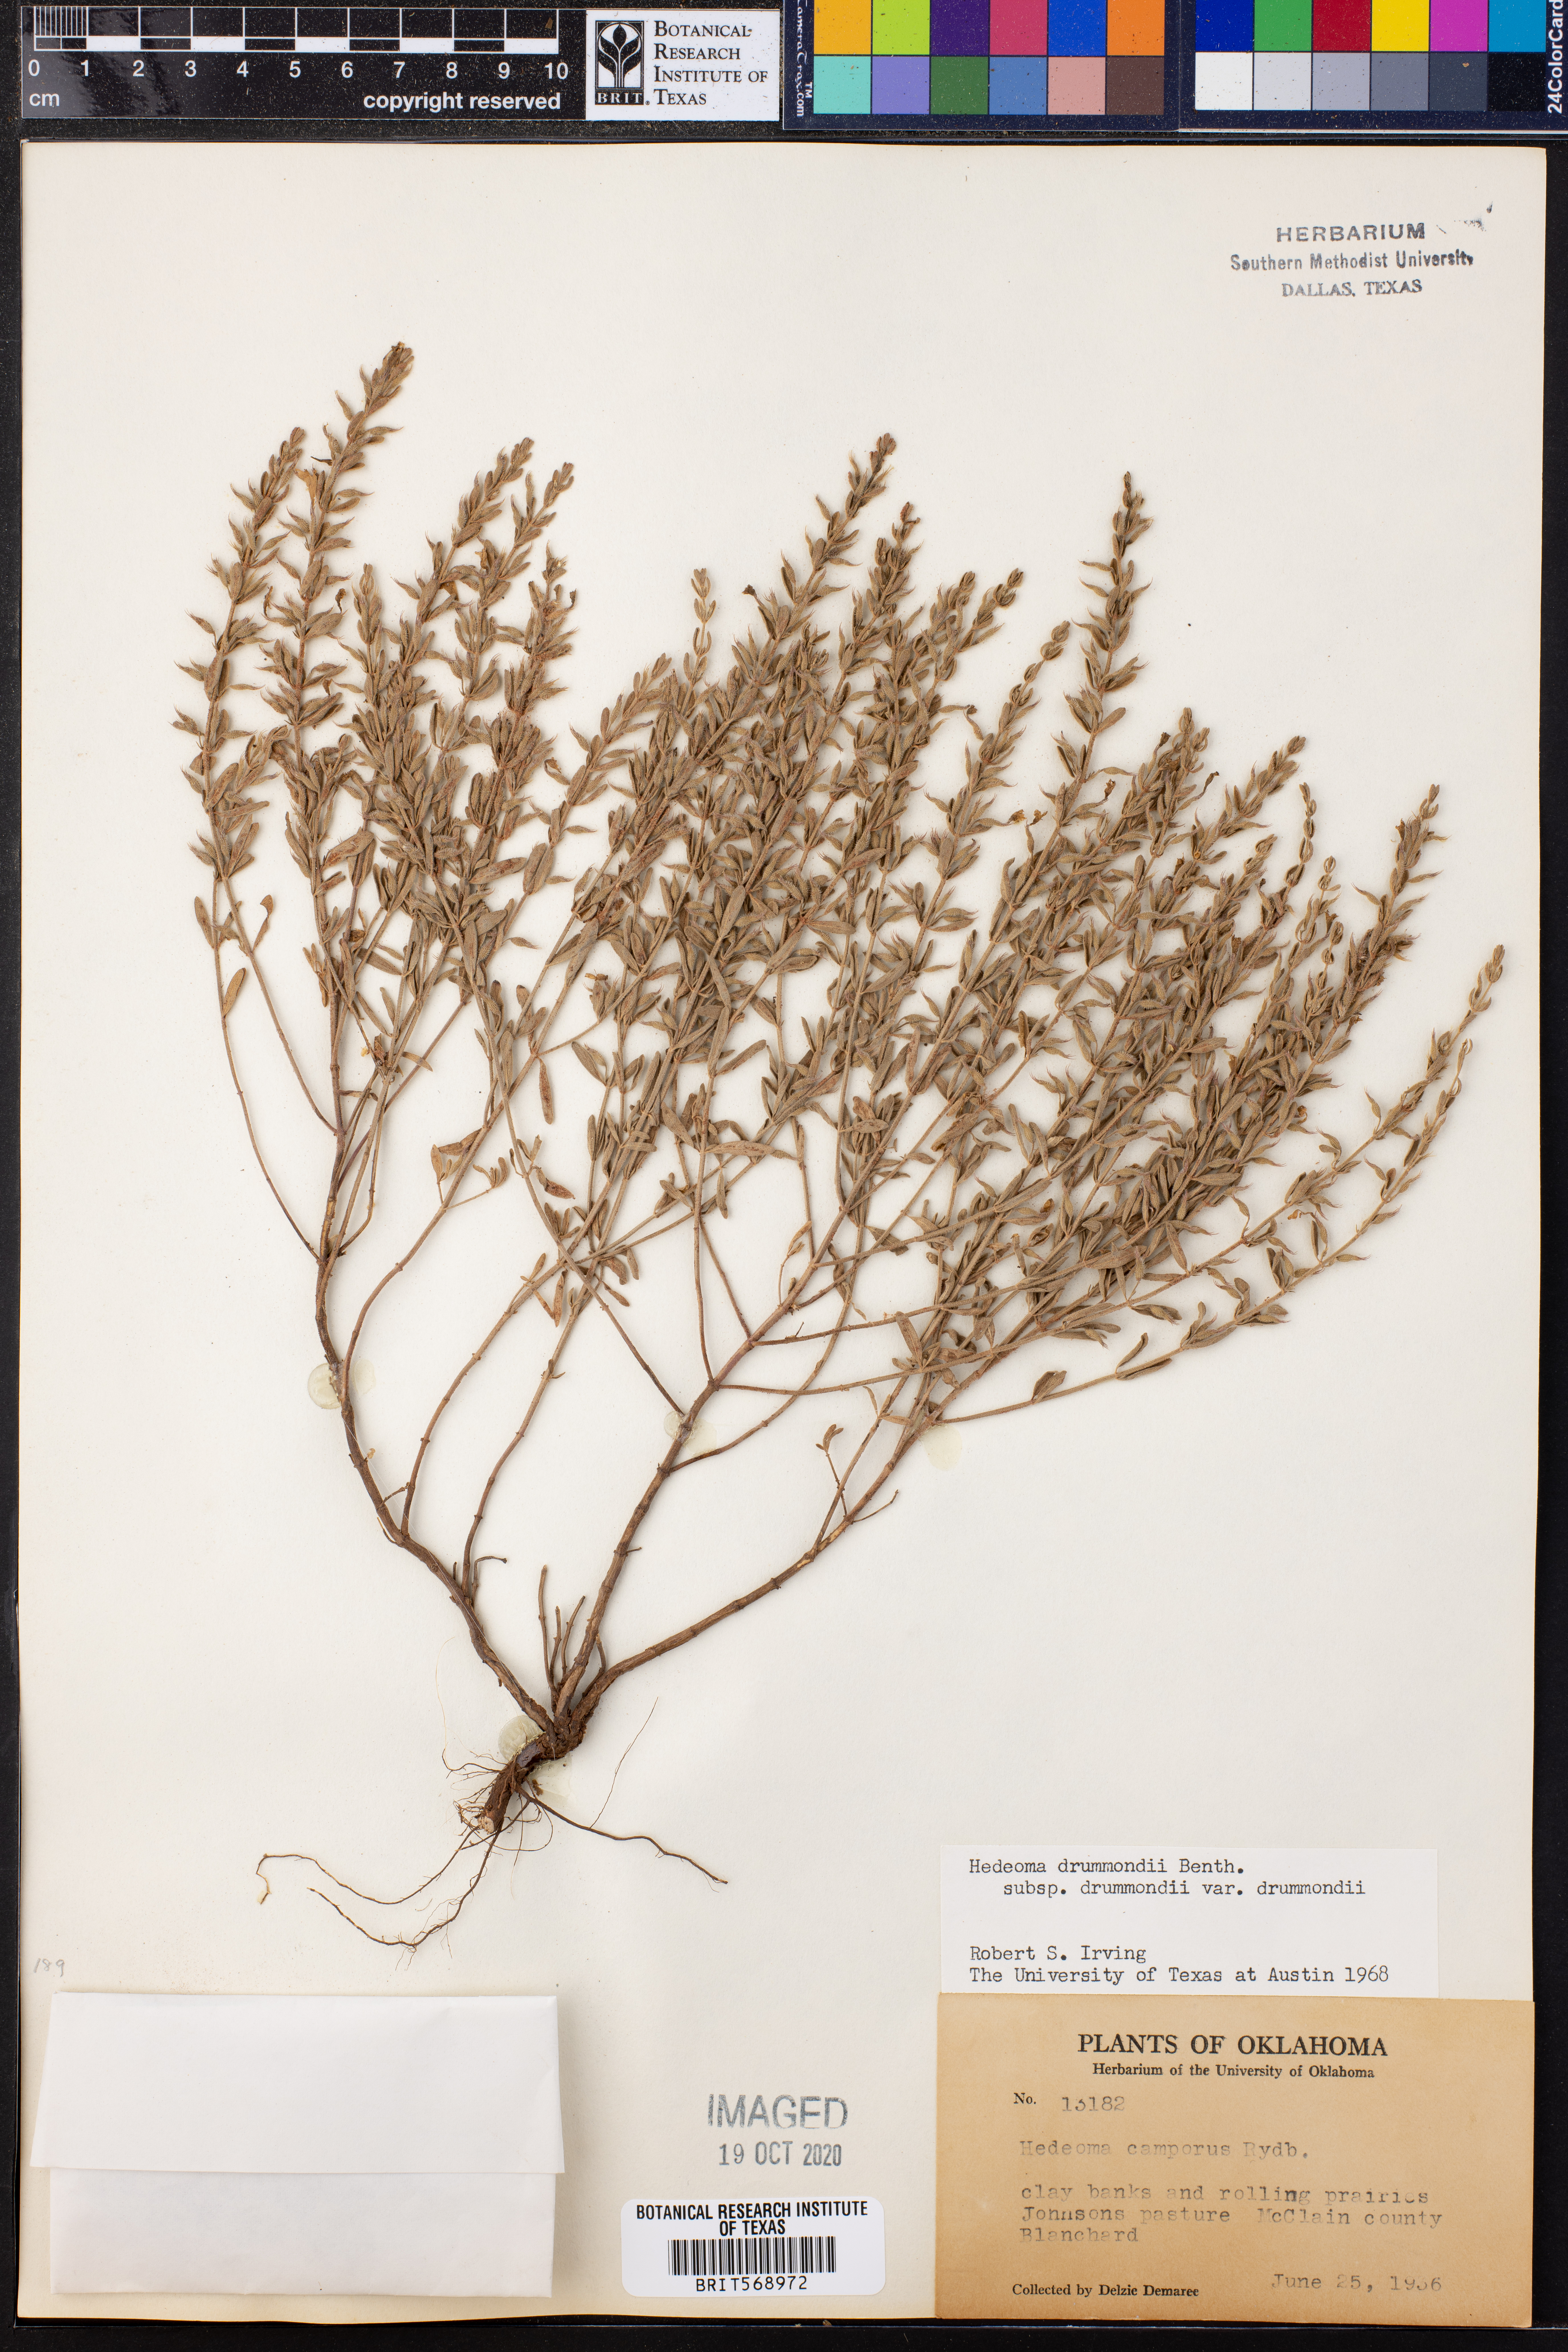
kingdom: Plantae
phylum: Tracheophyta
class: Magnoliopsida
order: Lamiales
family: Lamiaceae
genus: Hedeoma
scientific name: Hedeoma drummondii
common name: New mexico pennyroyal
